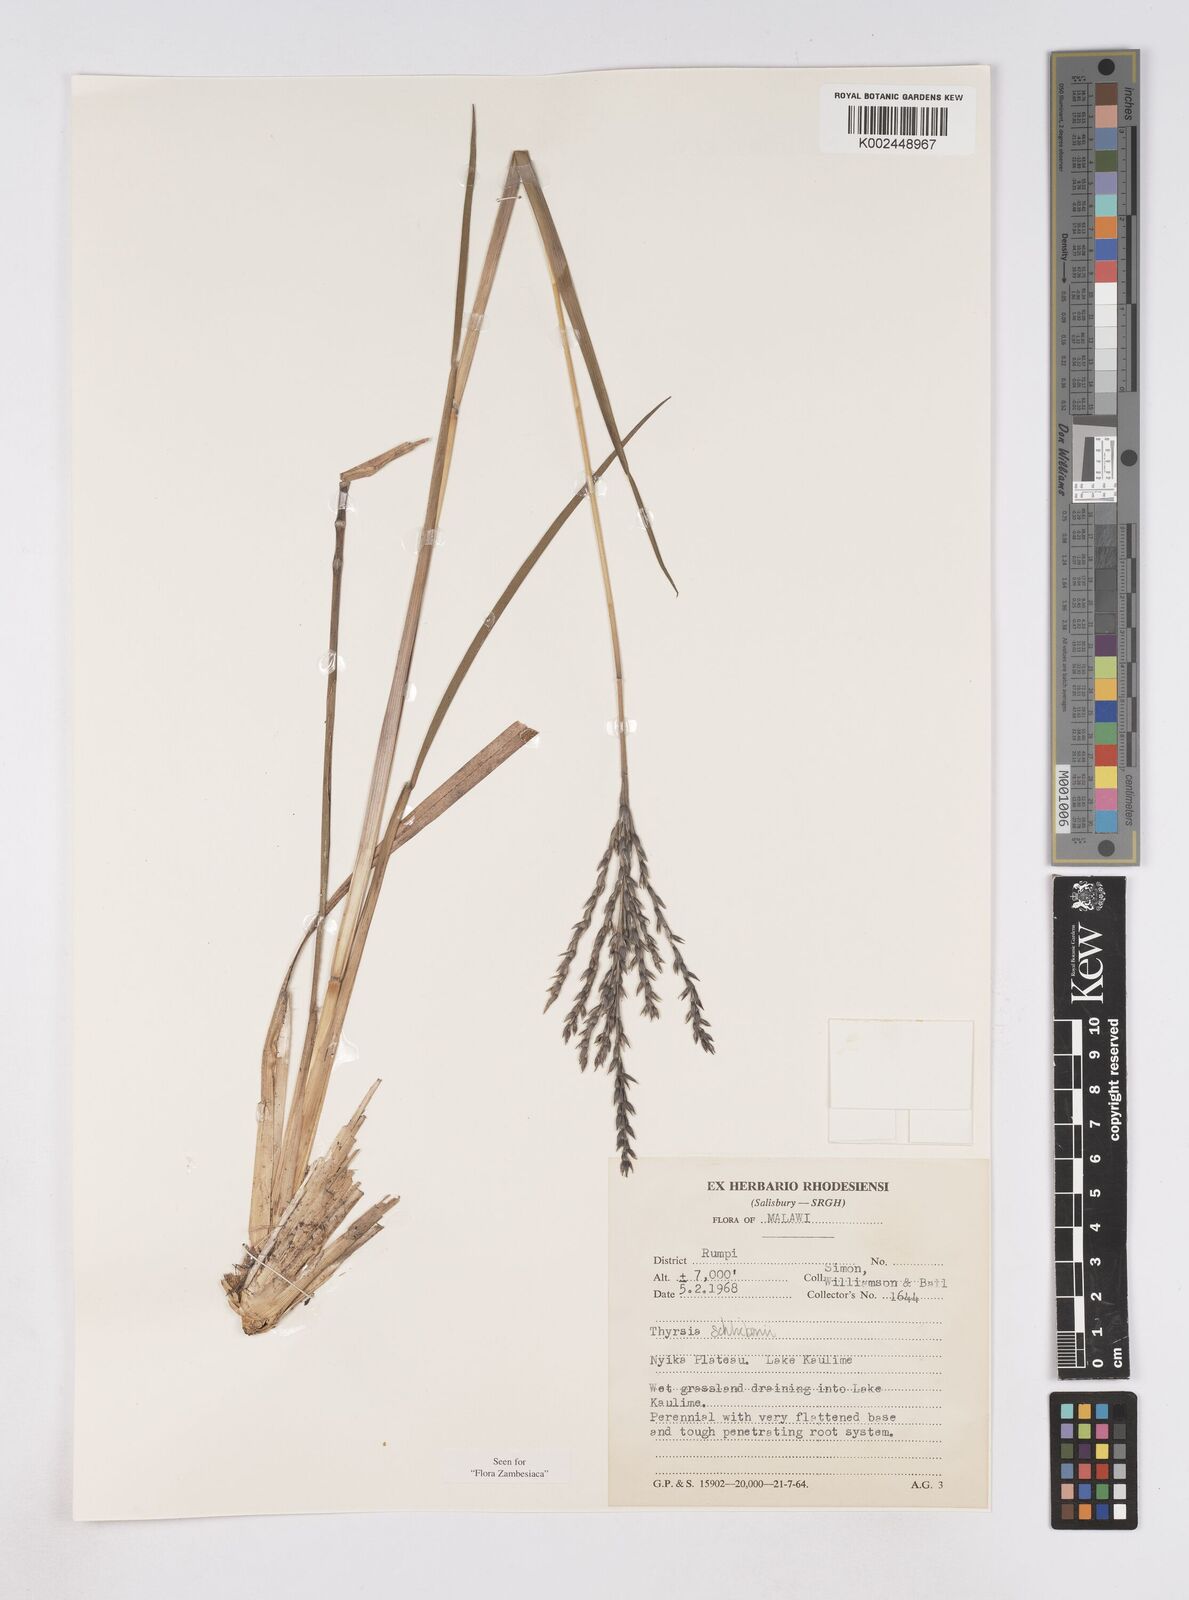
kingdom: Plantae
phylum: Tracheophyta
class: Liliopsida
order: Poales
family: Poaceae
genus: Thyrsia
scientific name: Thyrsia schliebenii
